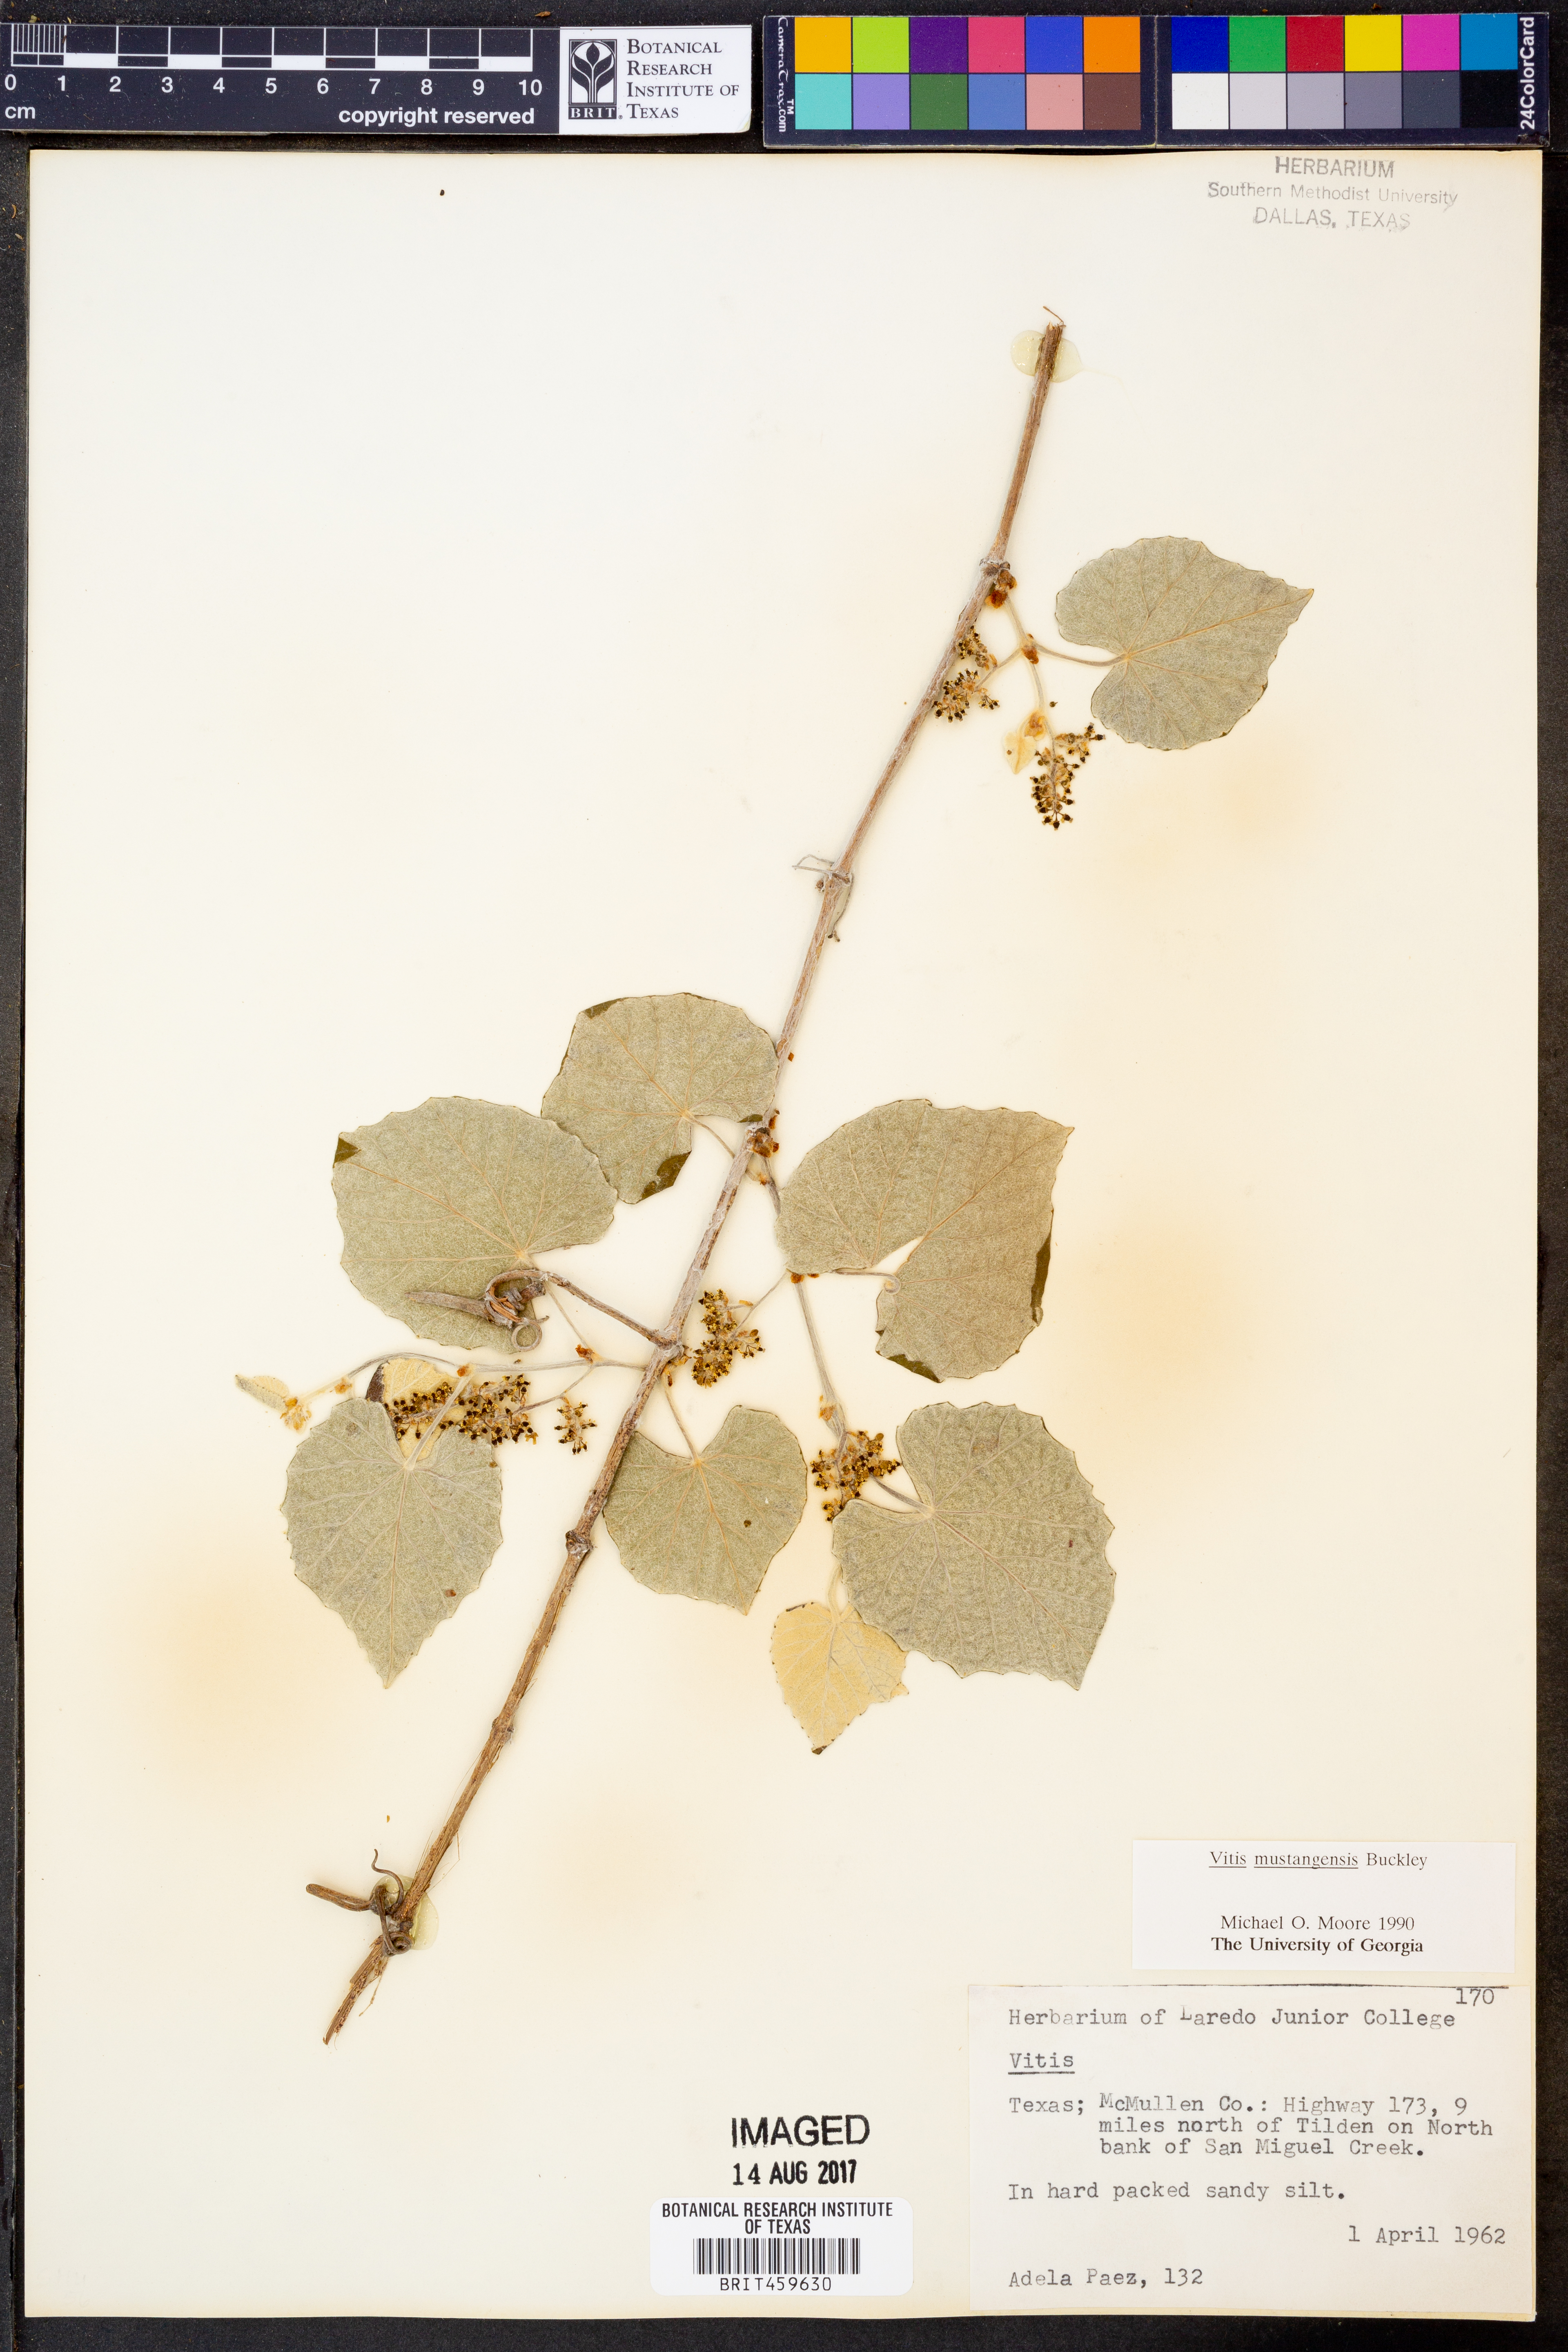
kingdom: Plantae
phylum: Tracheophyta
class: Magnoliopsida
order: Vitales
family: Vitaceae
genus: Vitis
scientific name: Vitis mustangensis
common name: Mustang grape
